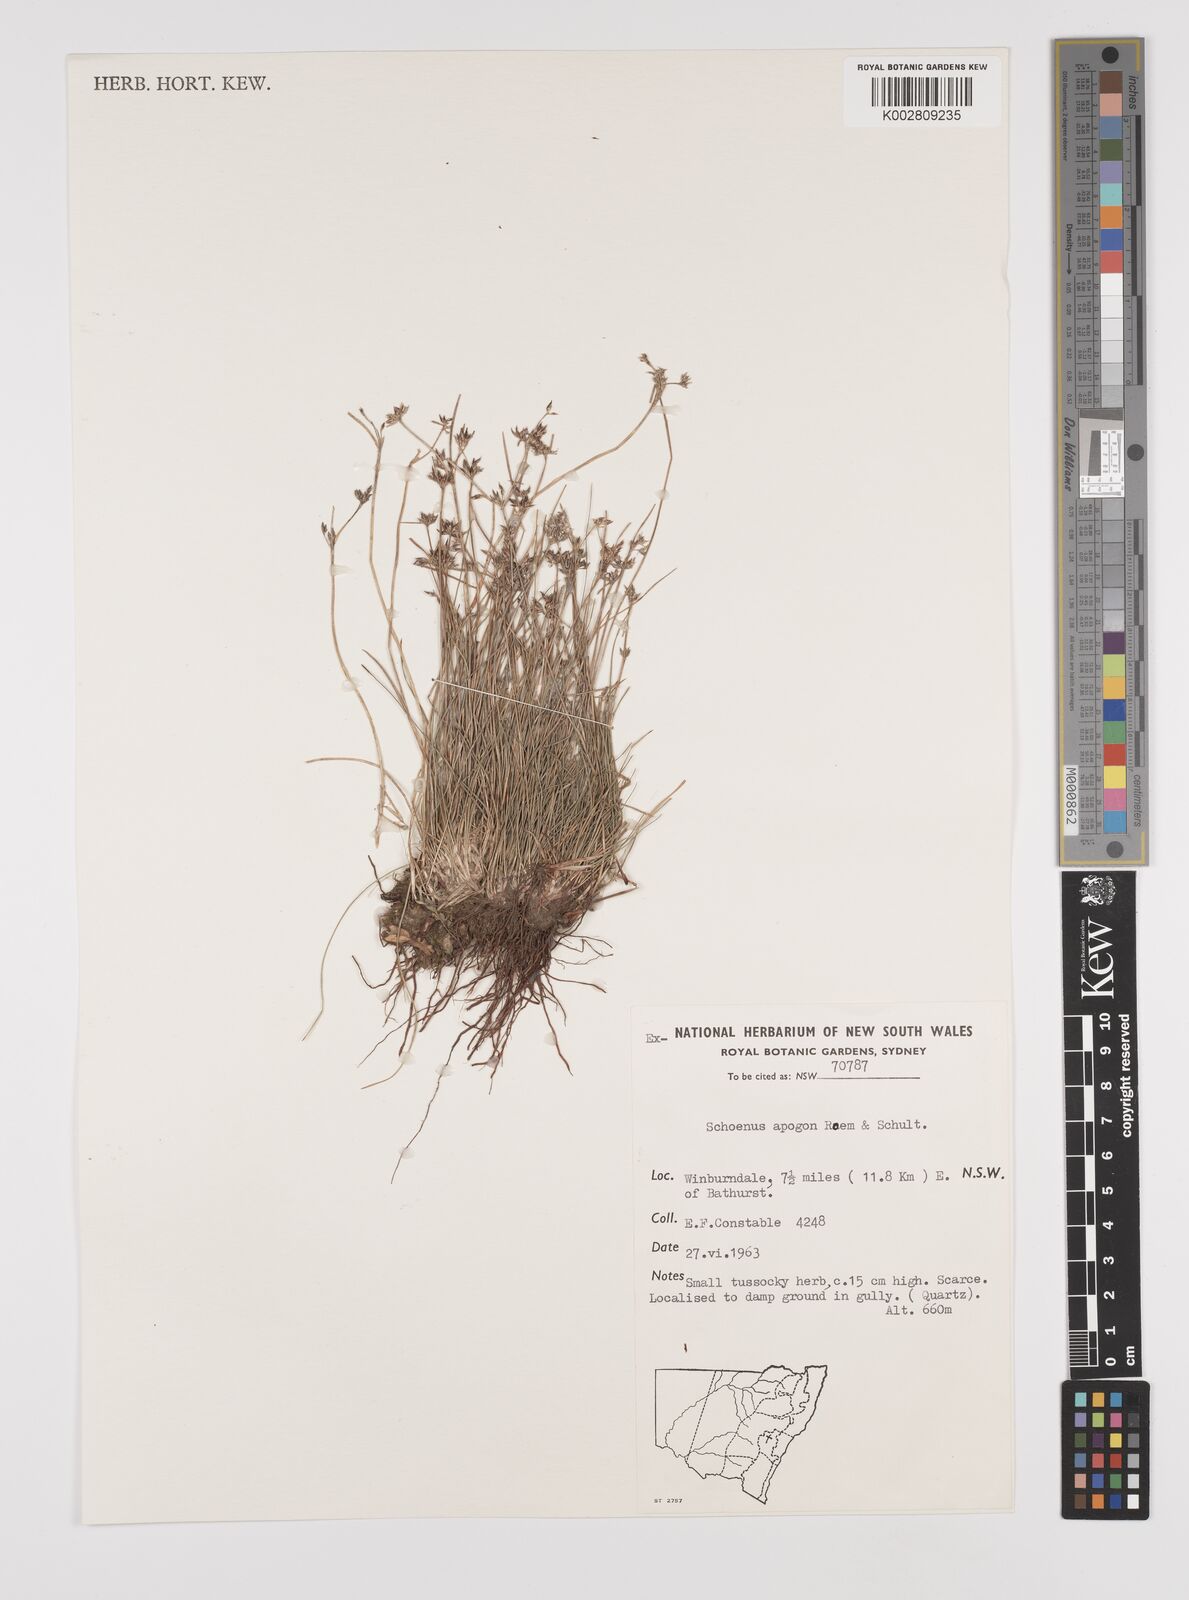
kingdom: Plantae
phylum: Tracheophyta
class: Liliopsida
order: Poales
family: Cyperaceae
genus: Schoenus
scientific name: Schoenus apogon
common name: Smooth bogrush
